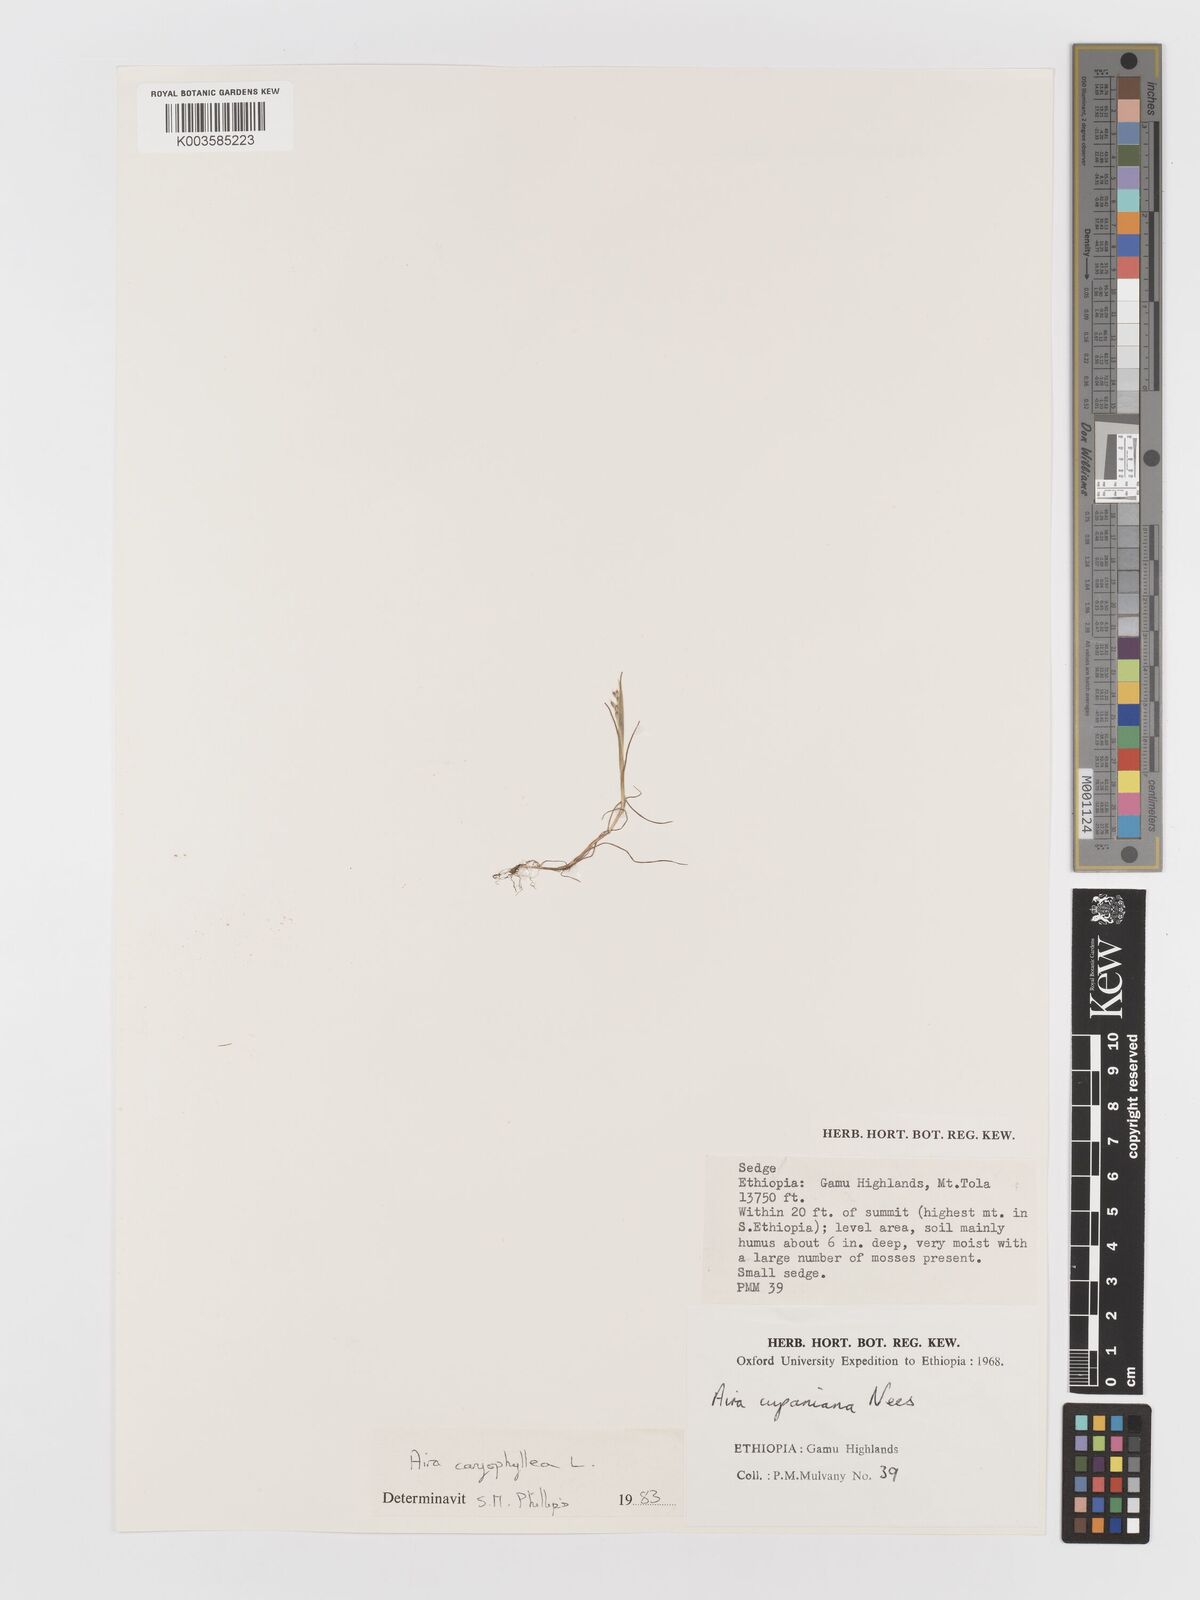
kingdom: Plantae
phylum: Tracheophyta
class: Liliopsida
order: Poales
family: Poaceae
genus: Aira
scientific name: Aira caryophyllea
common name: Silver hairgrass
